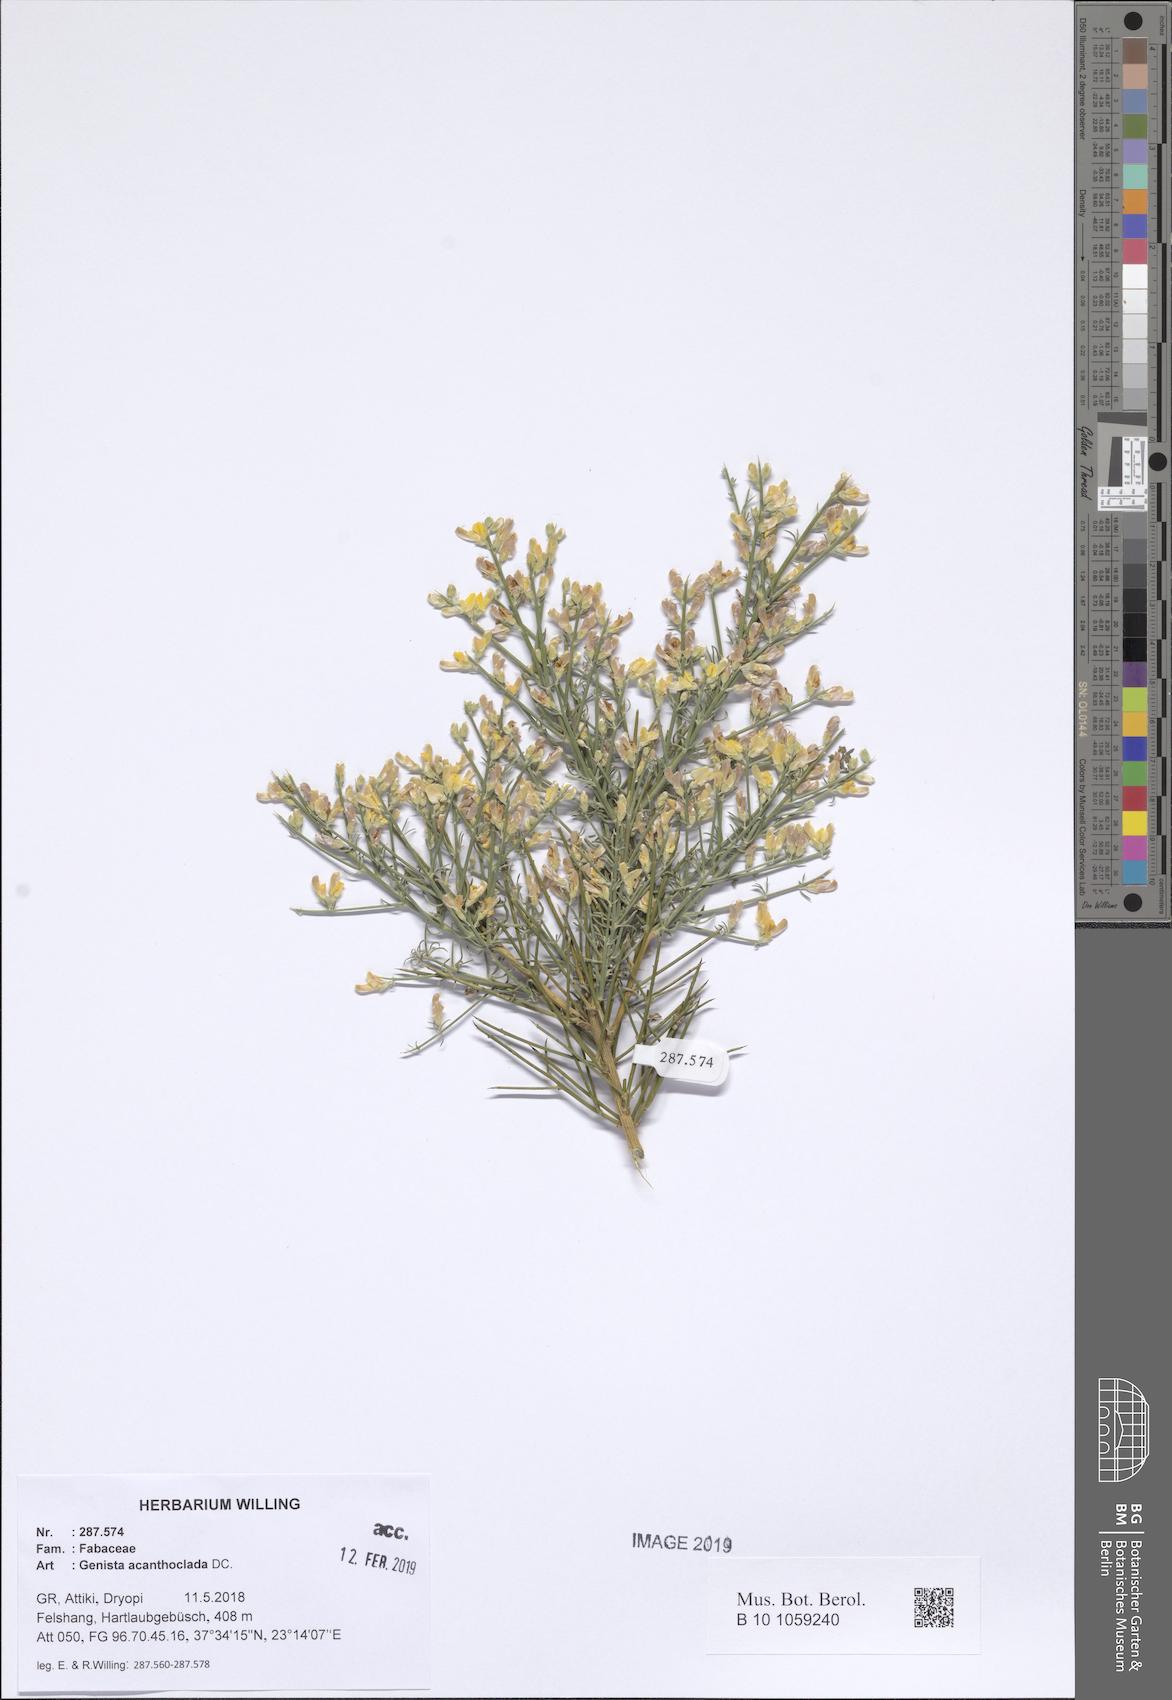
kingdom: Plantae
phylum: Tracheophyta
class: Magnoliopsida
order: Fabales
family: Fabaceae
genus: Genista
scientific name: Genista acanthoclada
